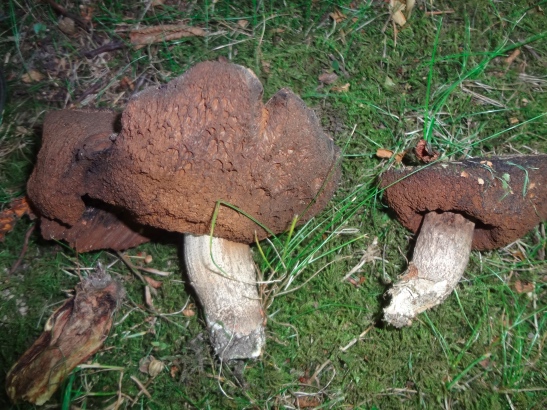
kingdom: Fungi
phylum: Basidiomycota
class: Agaricomycetes
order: Boletales
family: Boletaceae
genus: Leccinellum
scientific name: Leccinellum pseudoscabrum
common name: avnbøg-skælrørhat
